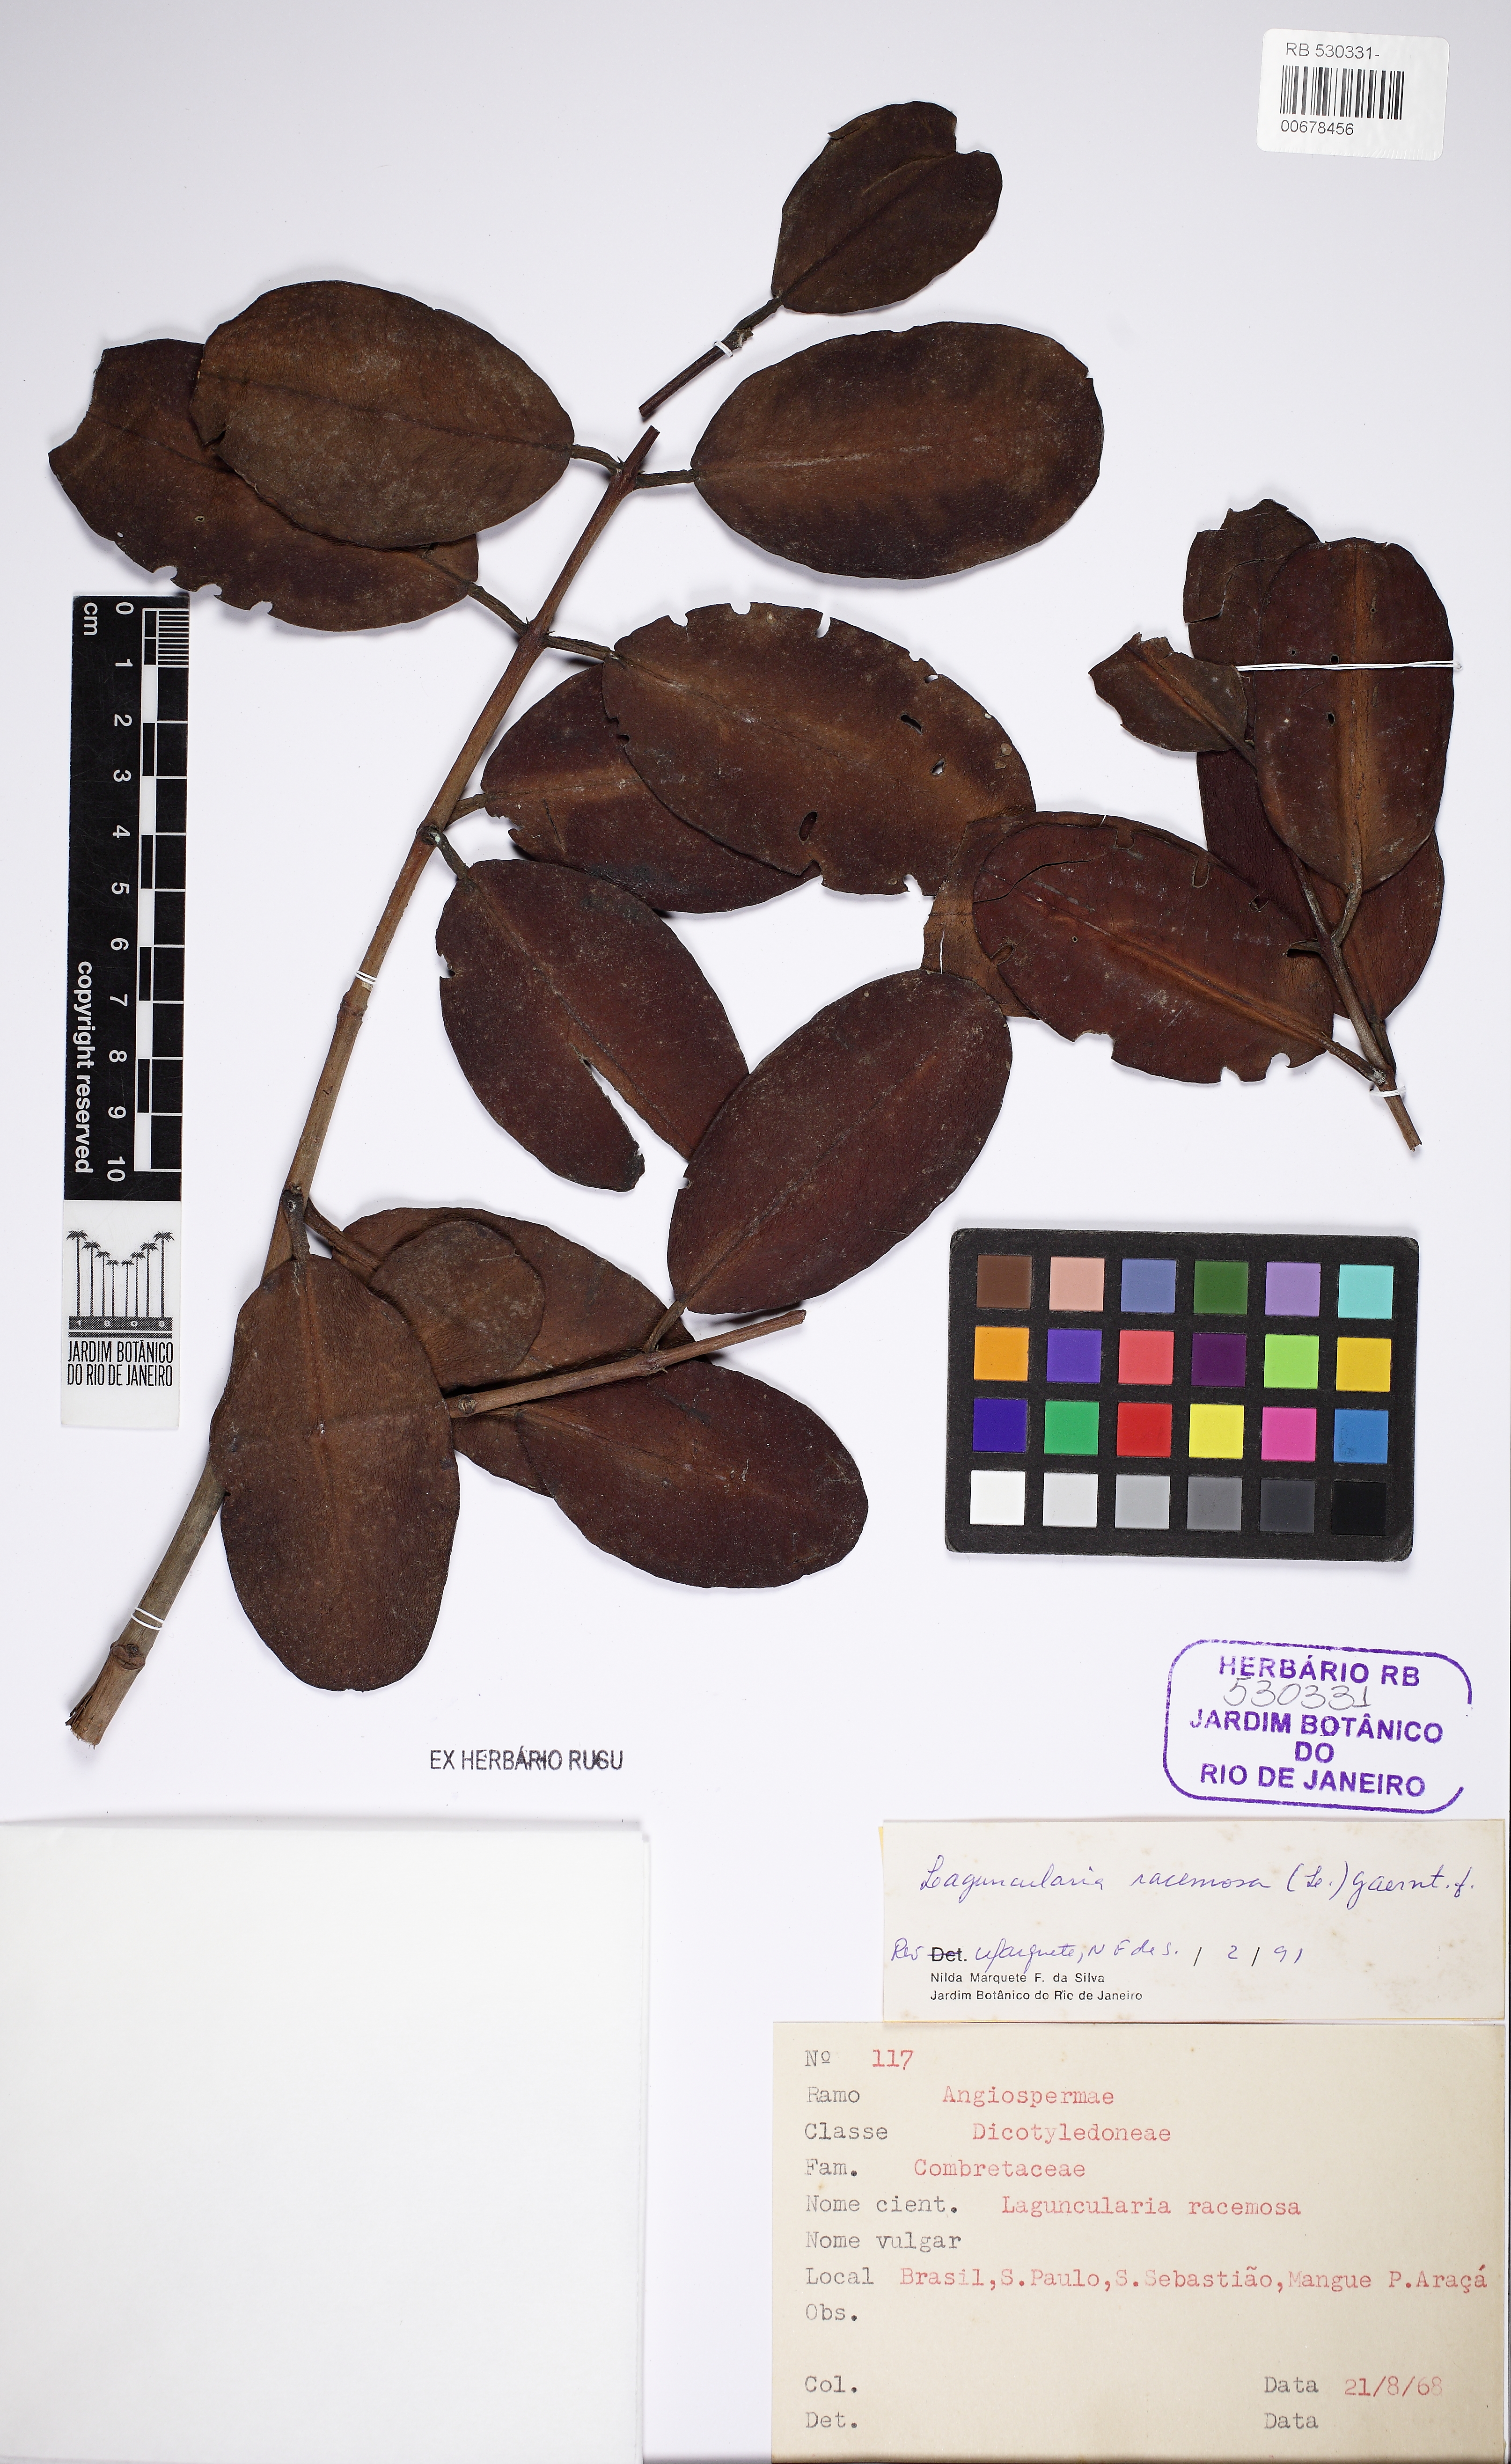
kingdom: Plantae
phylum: Tracheophyta
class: Magnoliopsida
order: Myrtales
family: Combretaceae
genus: Laguncularia
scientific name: Laguncularia racemosa
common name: White mangrove
